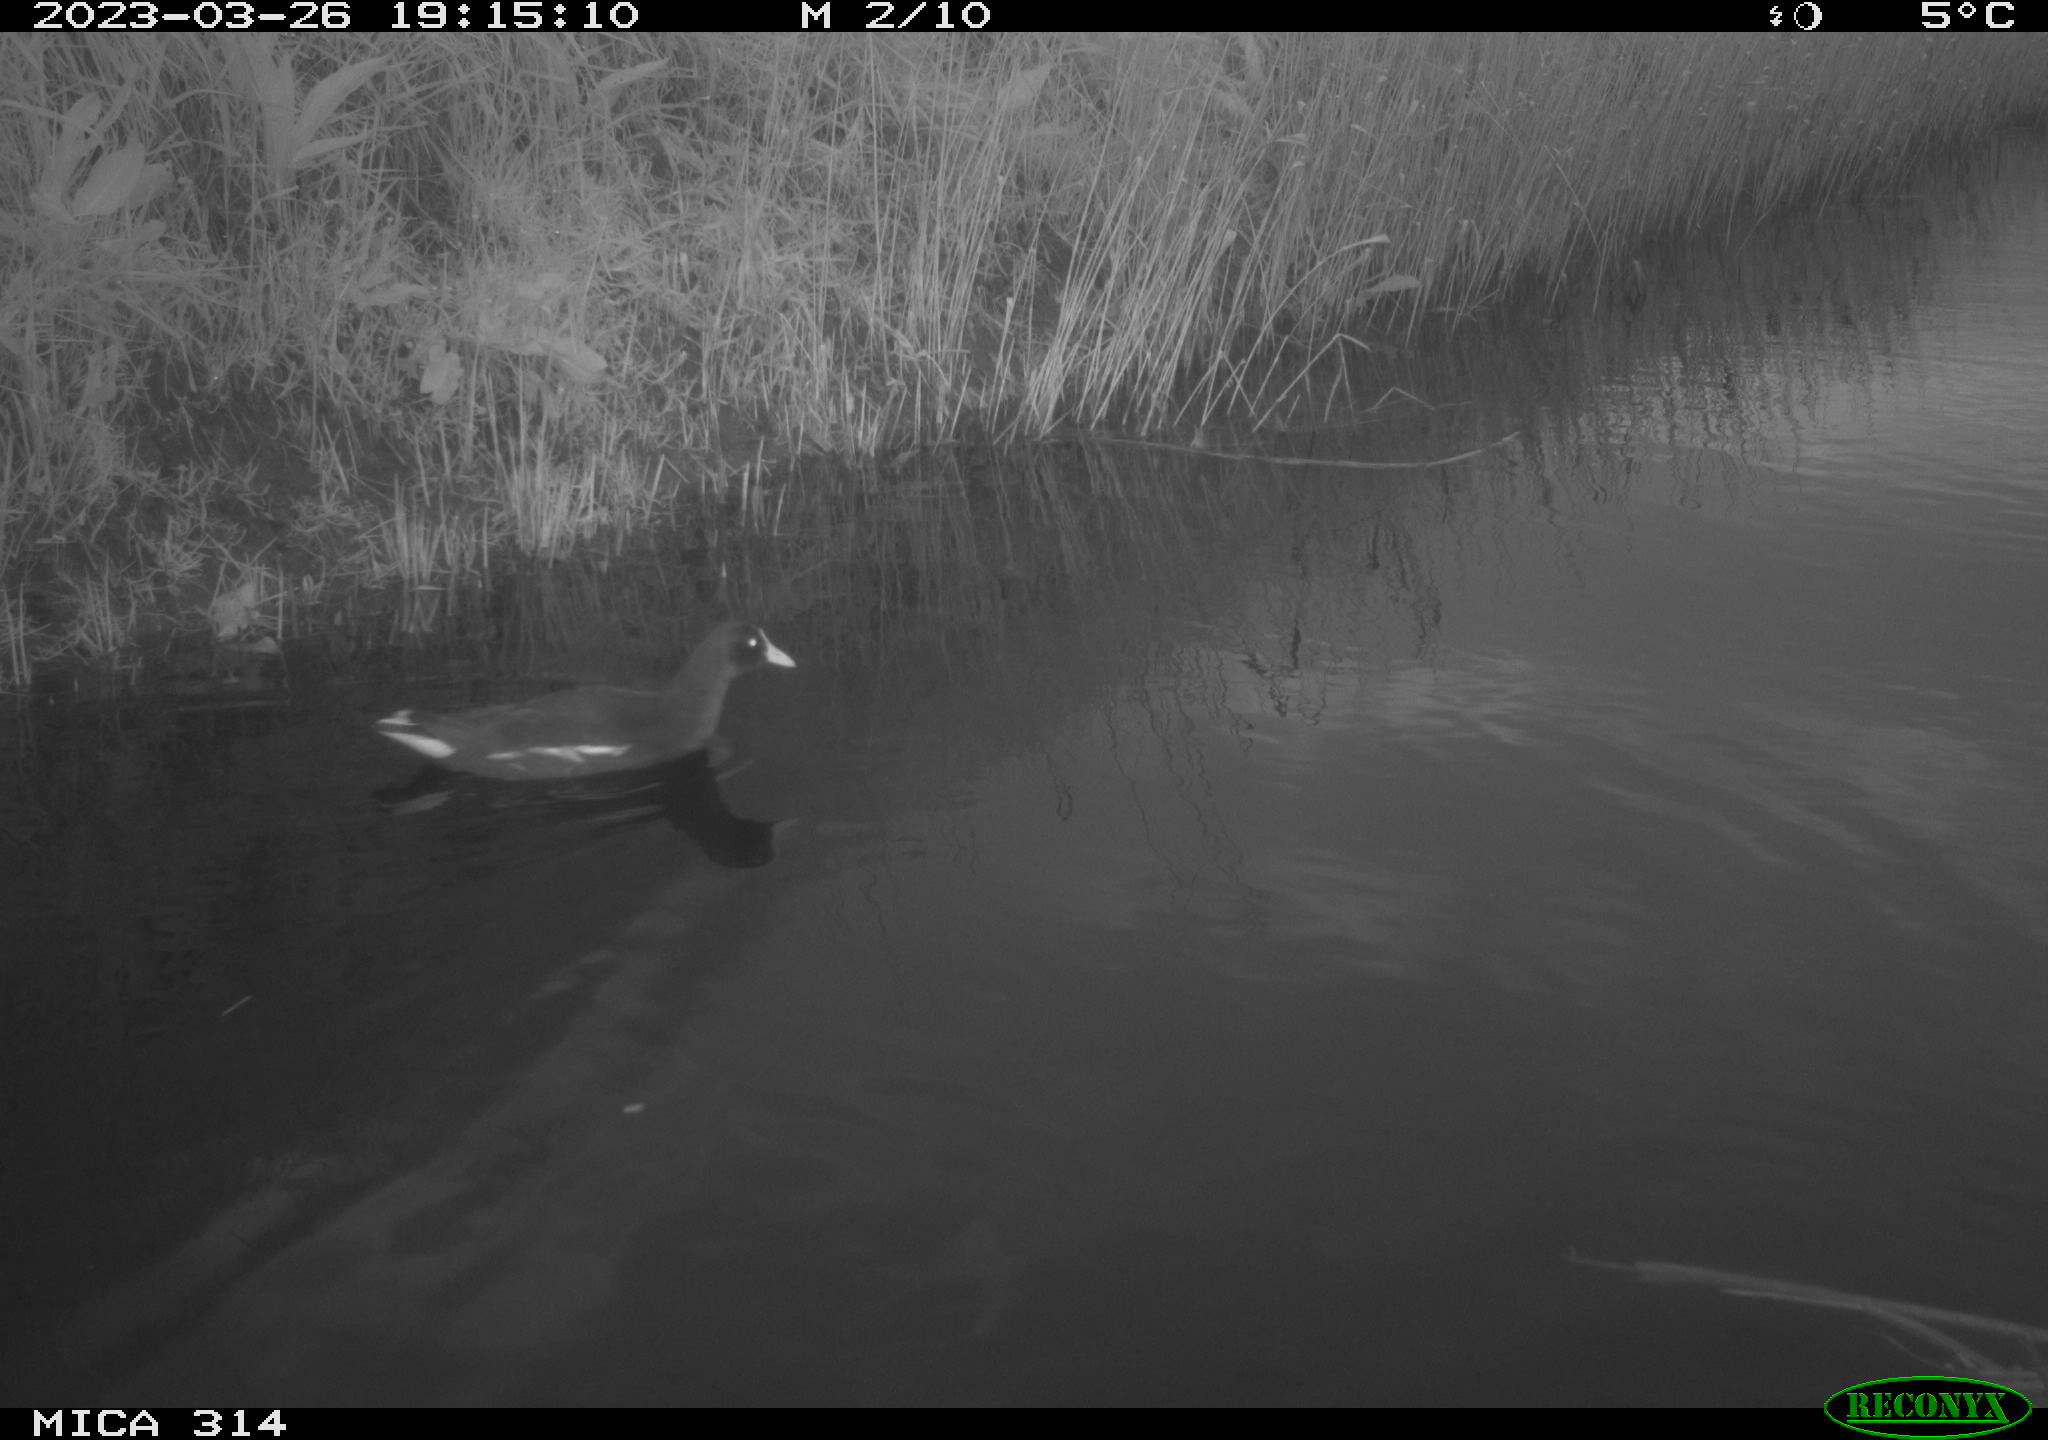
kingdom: Animalia
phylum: Chordata
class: Aves
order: Gruiformes
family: Rallidae
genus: Gallinula
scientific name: Gallinula chloropus
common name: Common moorhen
